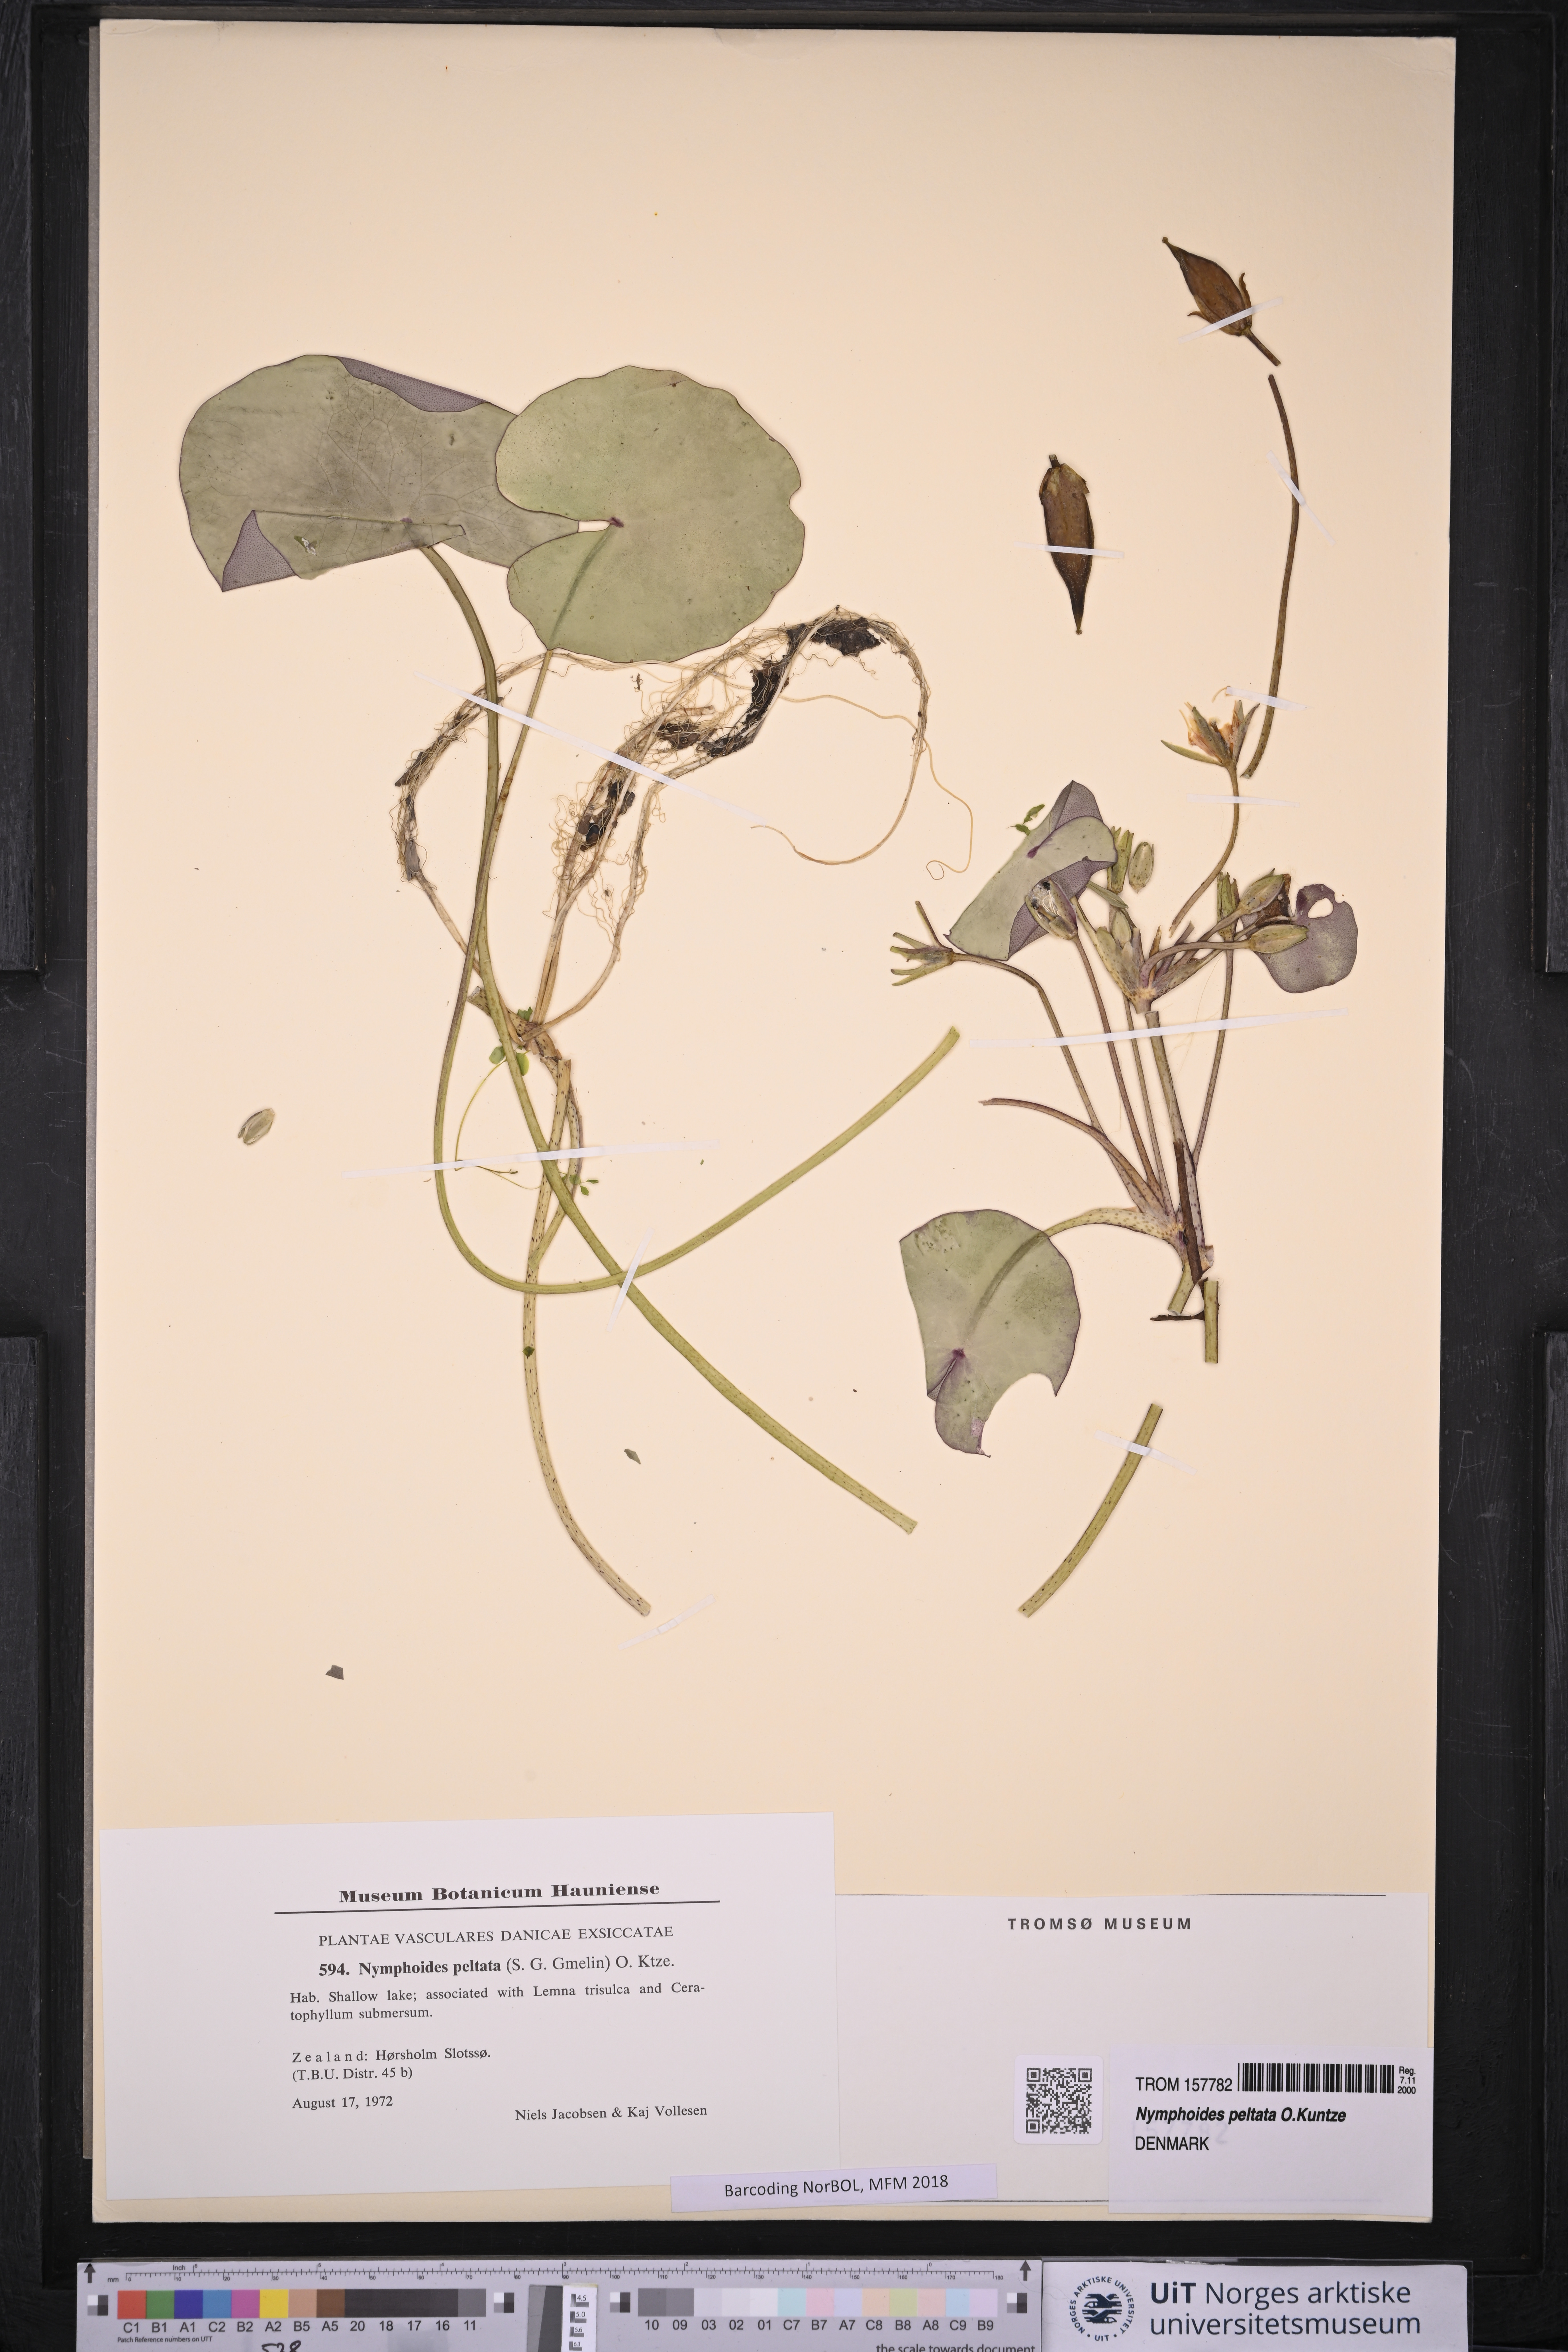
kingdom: Plantae
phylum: Tracheophyta
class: Magnoliopsida
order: Asterales
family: Menyanthaceae
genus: Nymphoides
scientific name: Nymphoides peltata
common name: Fringed water-lily
